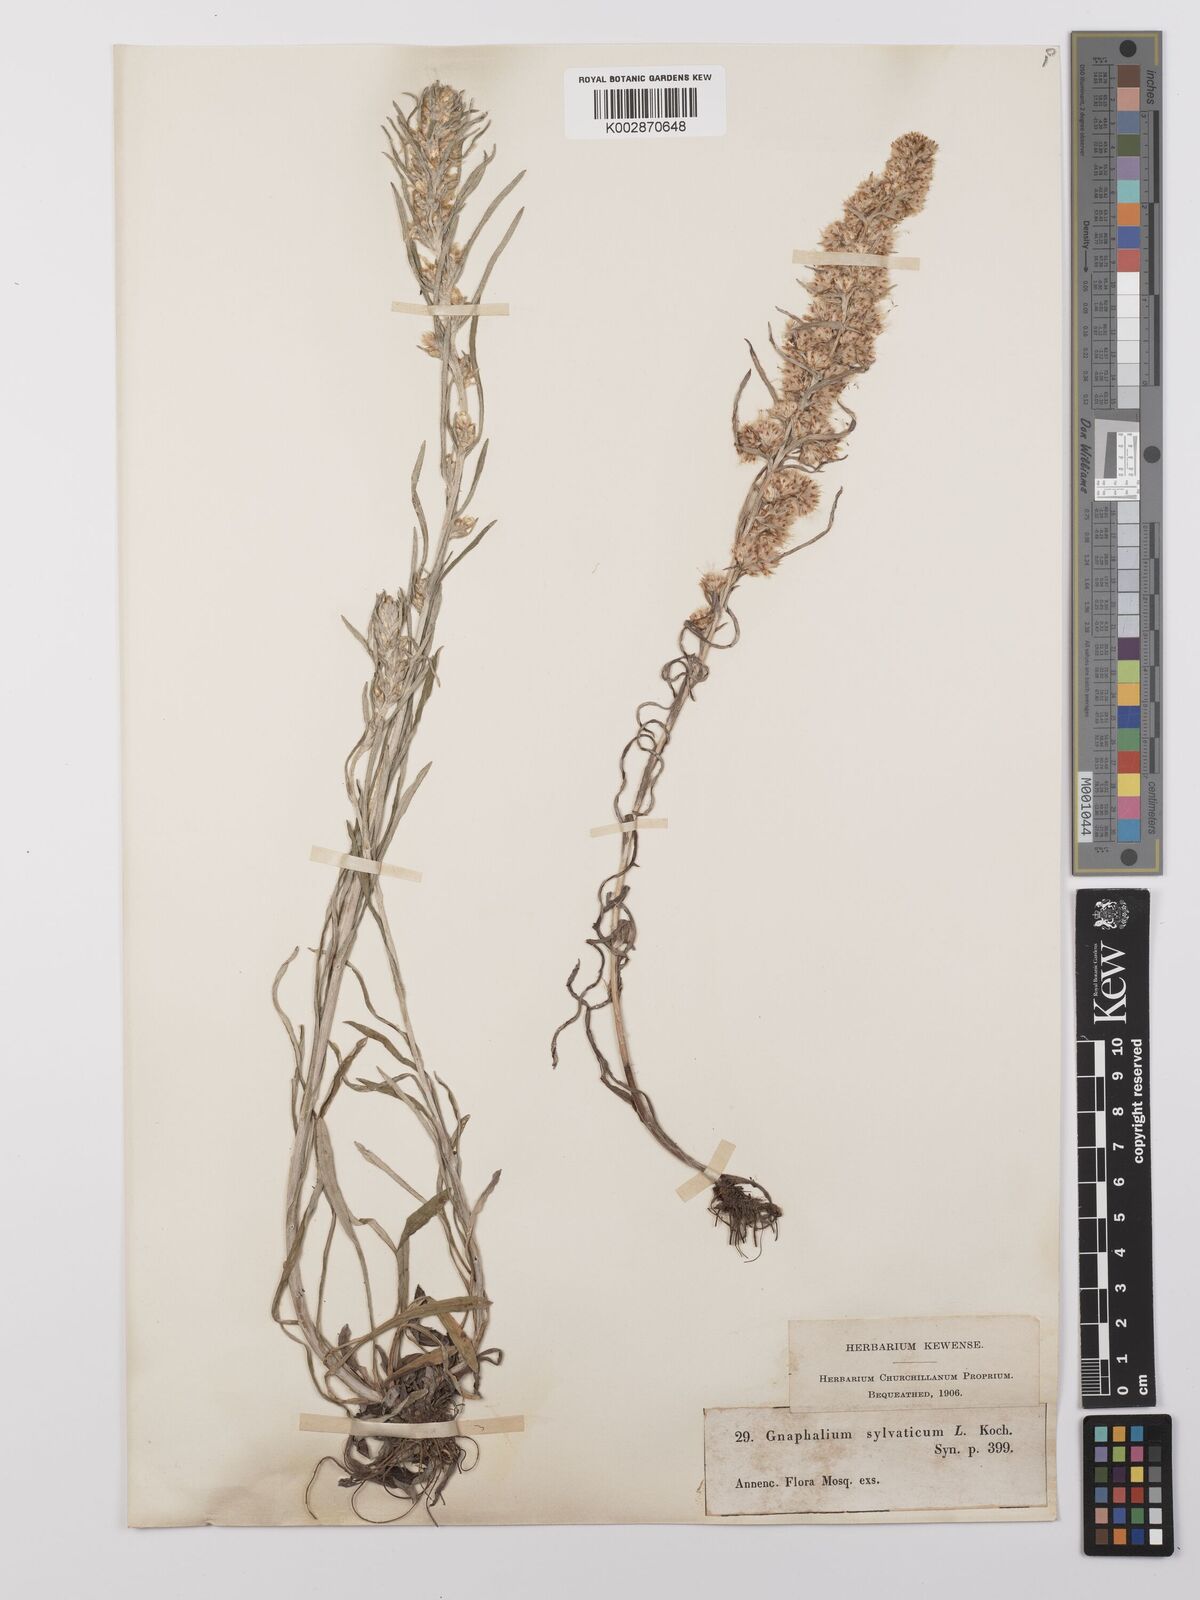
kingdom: Plantae
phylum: Tracheophyta
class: Magnoliopsida
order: Asterales
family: Asteraceae
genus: Omalotheca
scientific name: Omalotheca sylvatica
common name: Heath cudweed
